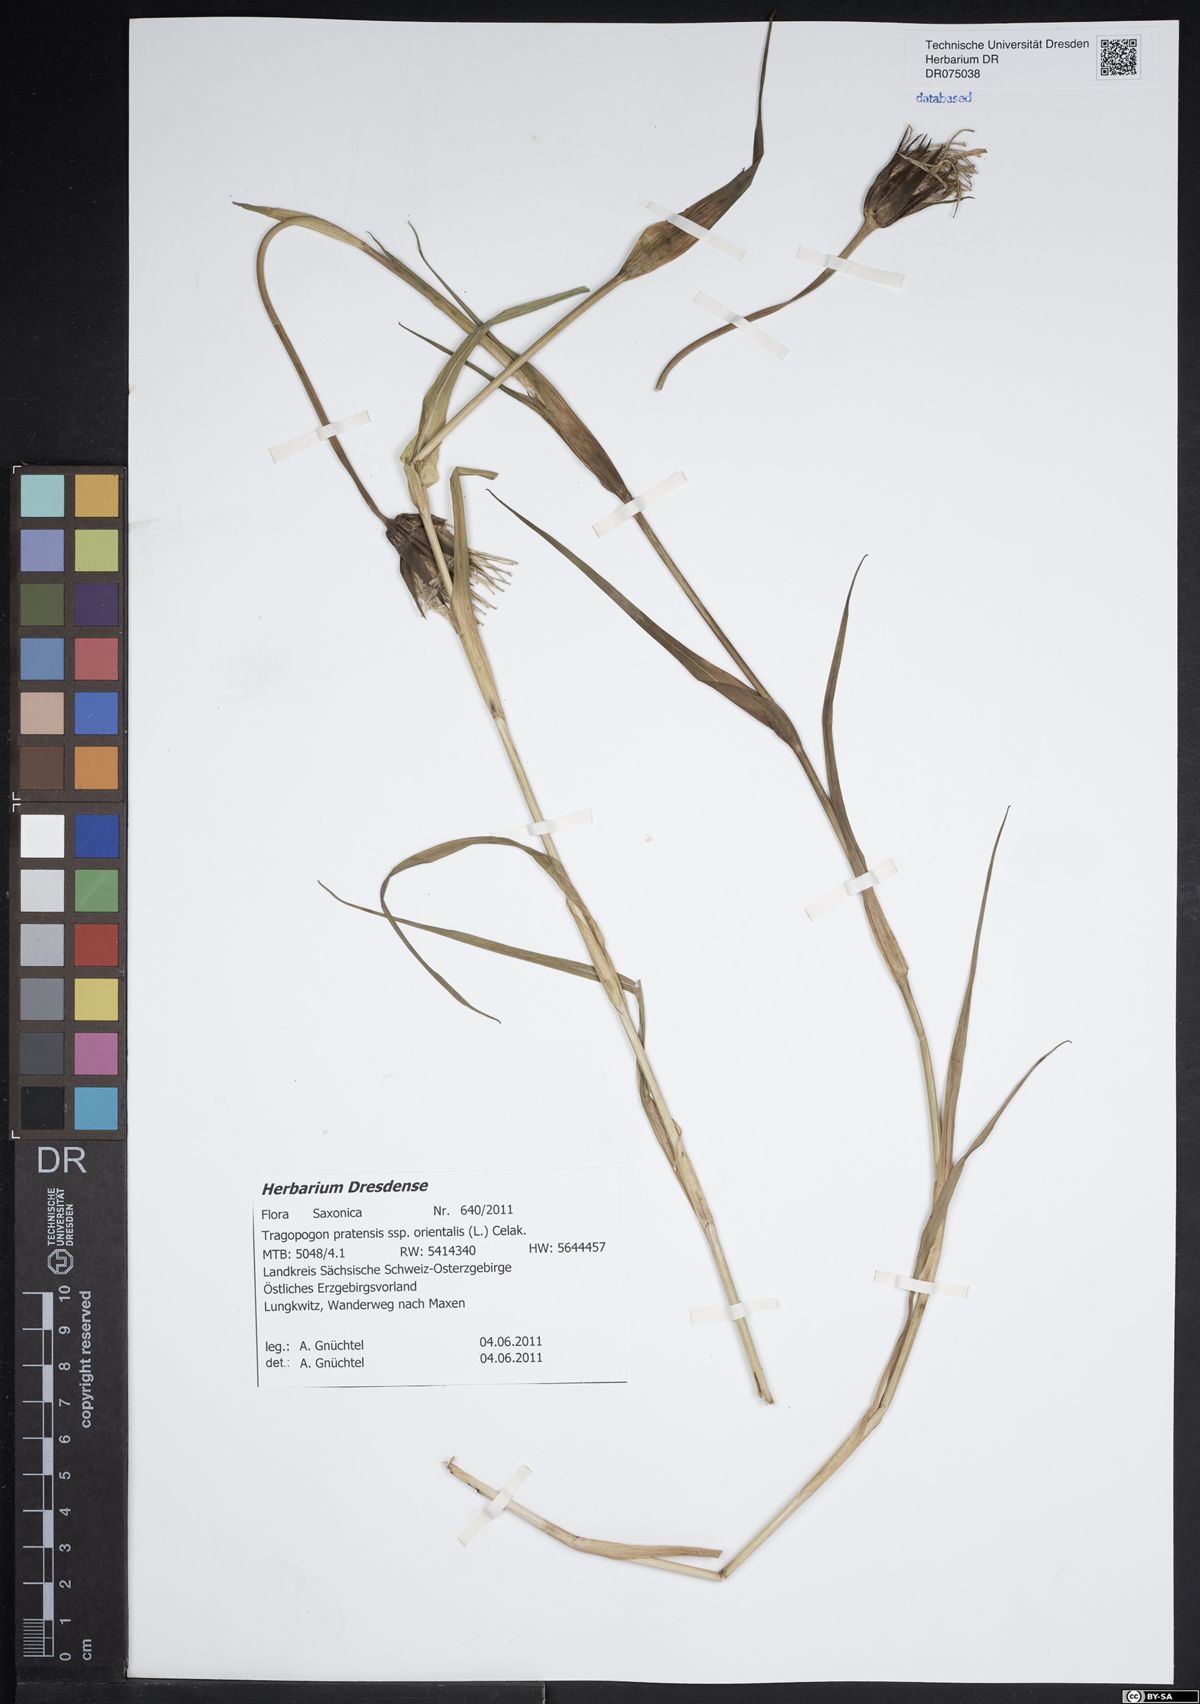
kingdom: Plantae
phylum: Tracheophyta
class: Magnoliopsida
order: Asterales
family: Asteraceae
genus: Tragopogon
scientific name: Tragopogon orientalis
